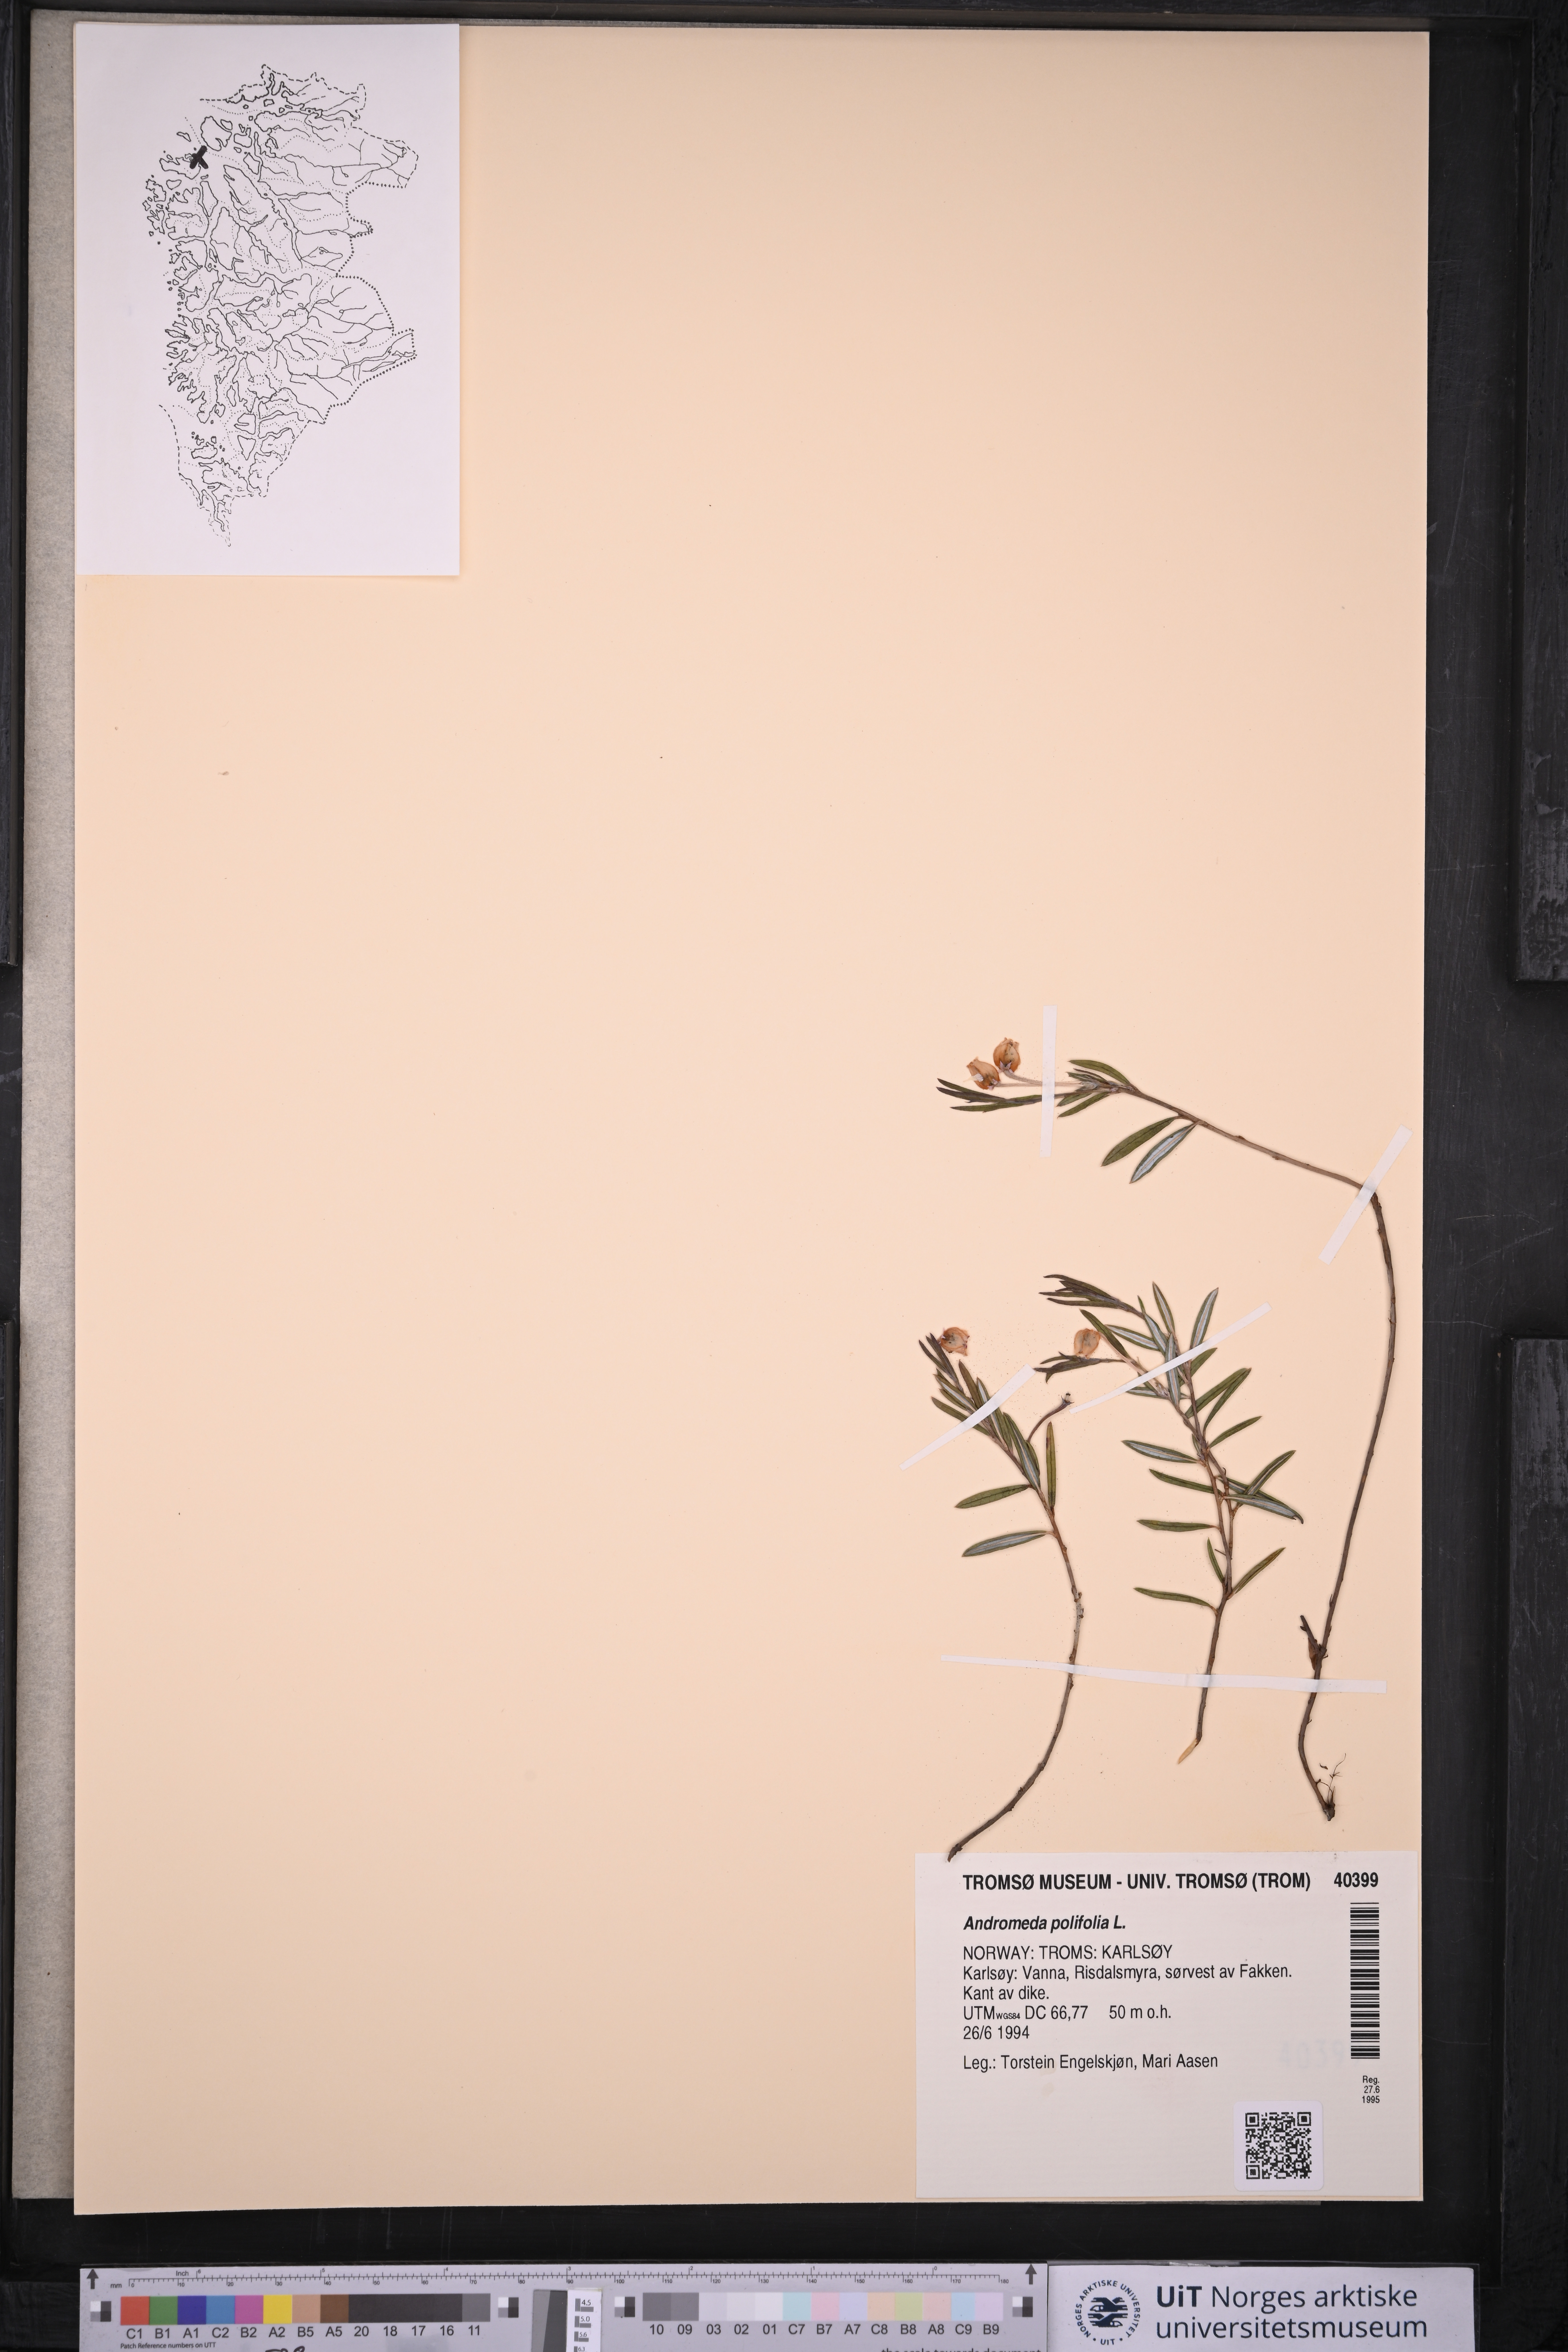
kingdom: Plantae
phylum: Tracheophyta
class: Magnoliopsida
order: Ericales
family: Ericaceae
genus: Andromeda
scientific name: Andromeda polifolia
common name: Bog-rosemary
